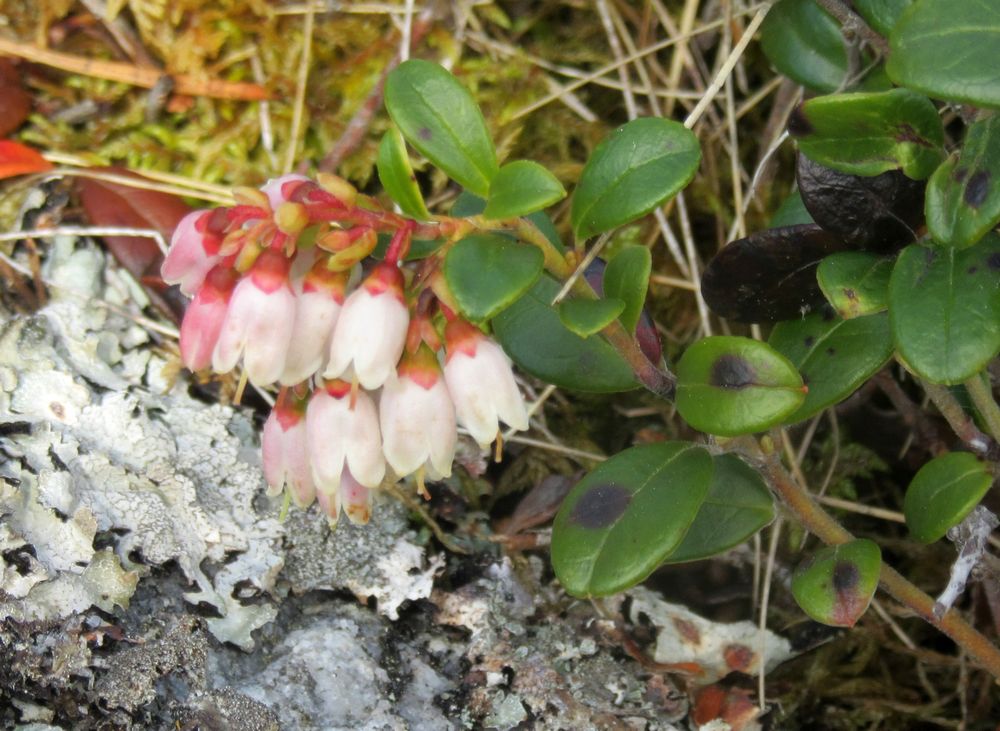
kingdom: Plantae
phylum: Tracheophyta
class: Magnoliopsida
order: Ericales
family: Ericaceae
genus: Vaccinium
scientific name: Vaccinium vitis-idaea
